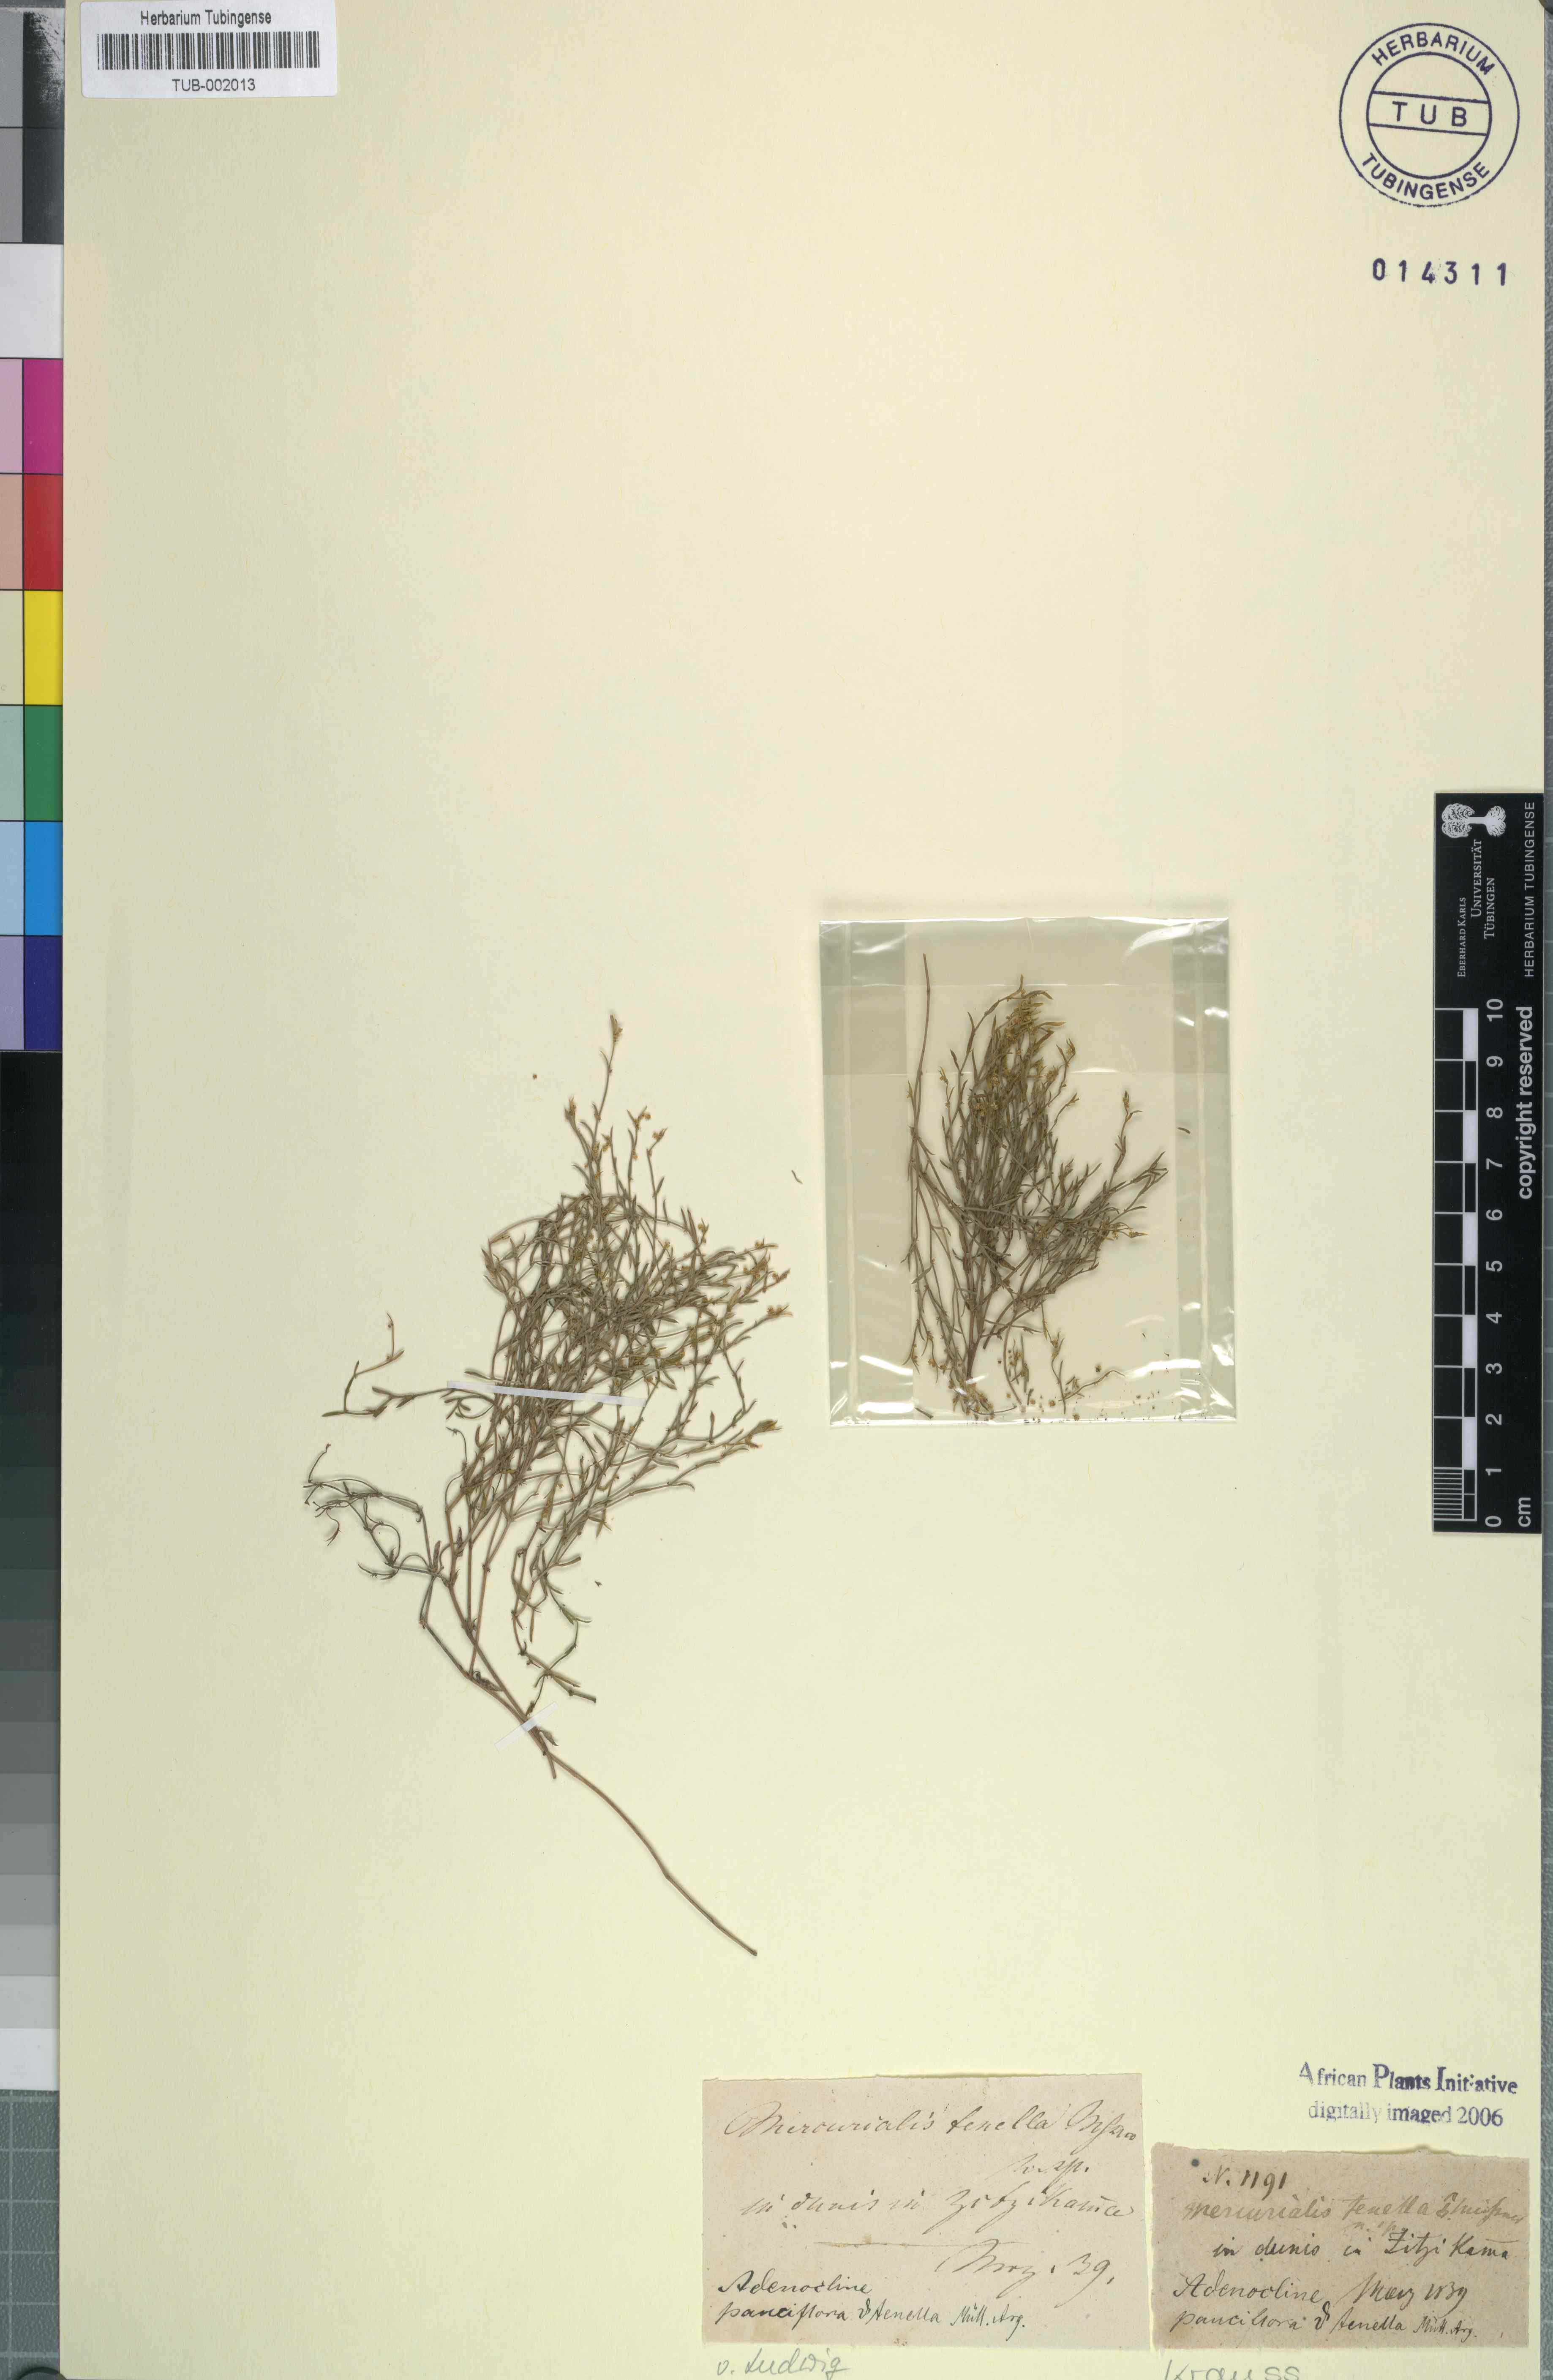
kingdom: Plantae
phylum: Tracheophyta
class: Magnoliopsida
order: Malpighiales
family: Euphorbiaceae
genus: Adenocline
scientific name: Adenocline pauciflora
